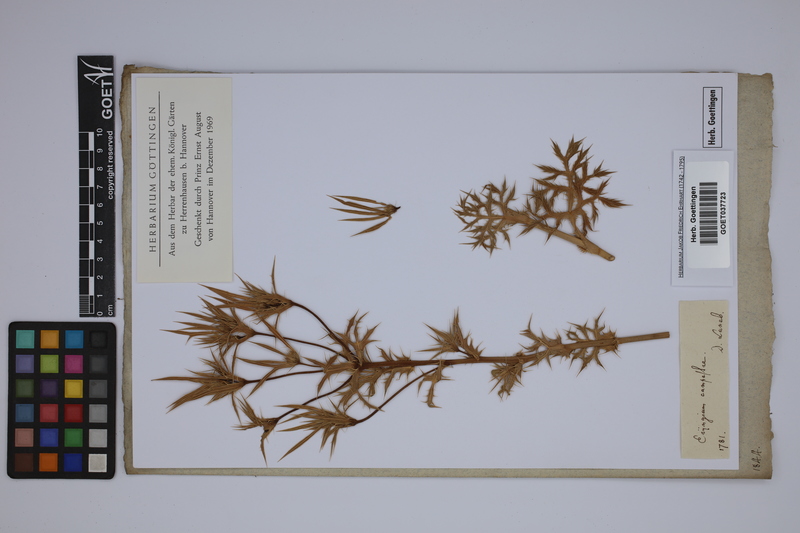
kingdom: Plantae
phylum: Tracheophyta
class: Magnoliopsida
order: Apiales
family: Apiaceae
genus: Eryngium
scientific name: Eryngium campestre
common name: Field eryngo
